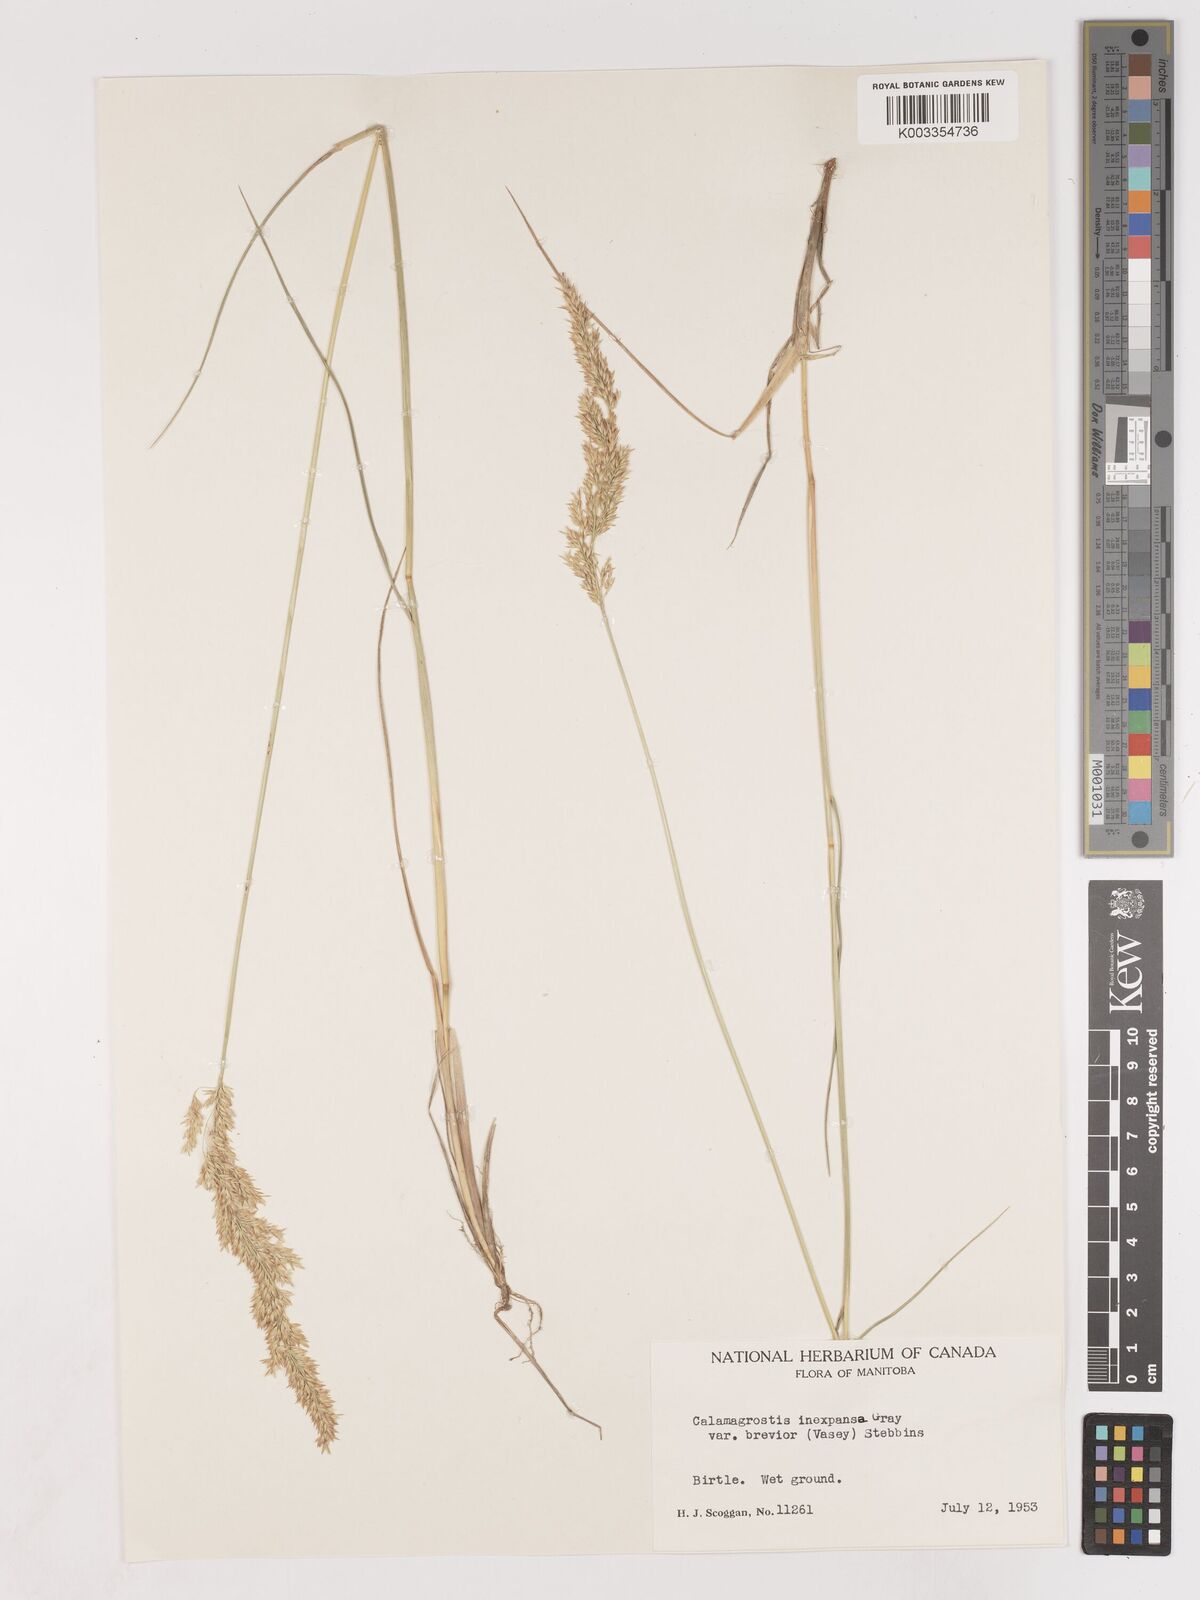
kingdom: Plantae
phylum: Tracheophyta
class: Liliopsida
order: Poales
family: Poaceae
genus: Cinnagrostis
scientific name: Cinnagrostis recta
